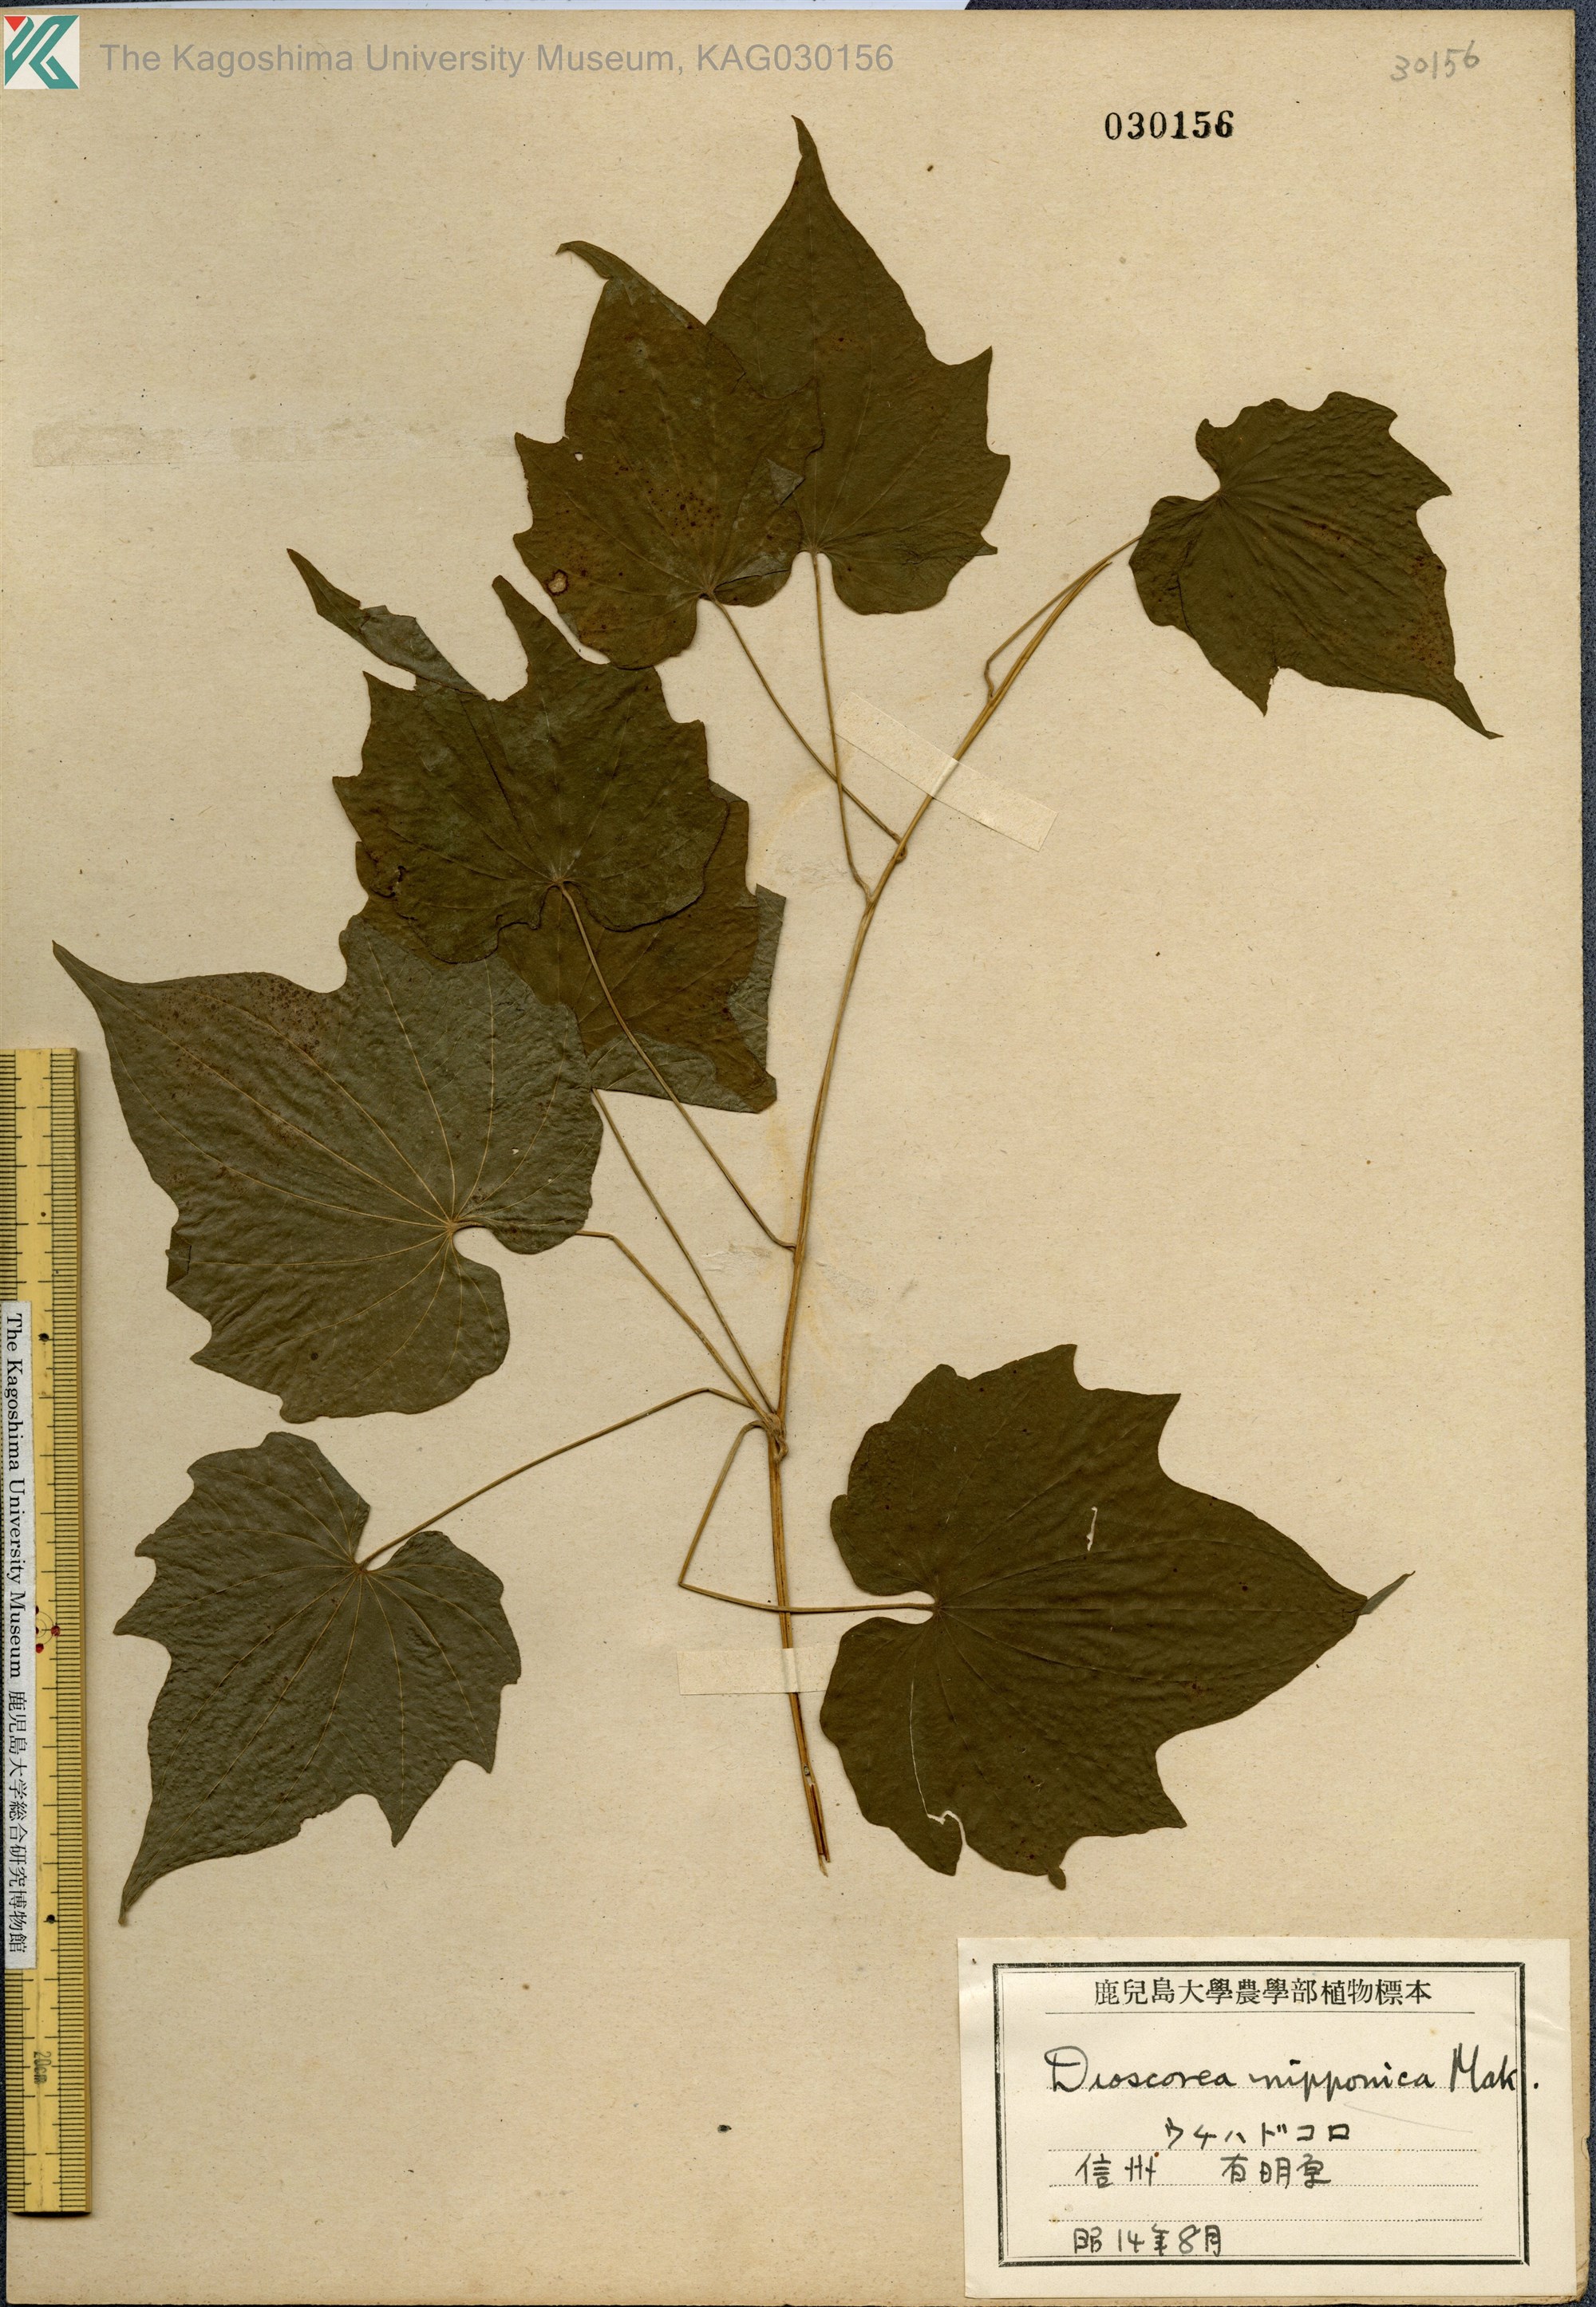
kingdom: Plantae
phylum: Tracheophyta
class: Liliopsida
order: Dioscoreales
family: Dioscoreaceae
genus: Dioscorea
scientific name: Dioscorea nipponica
